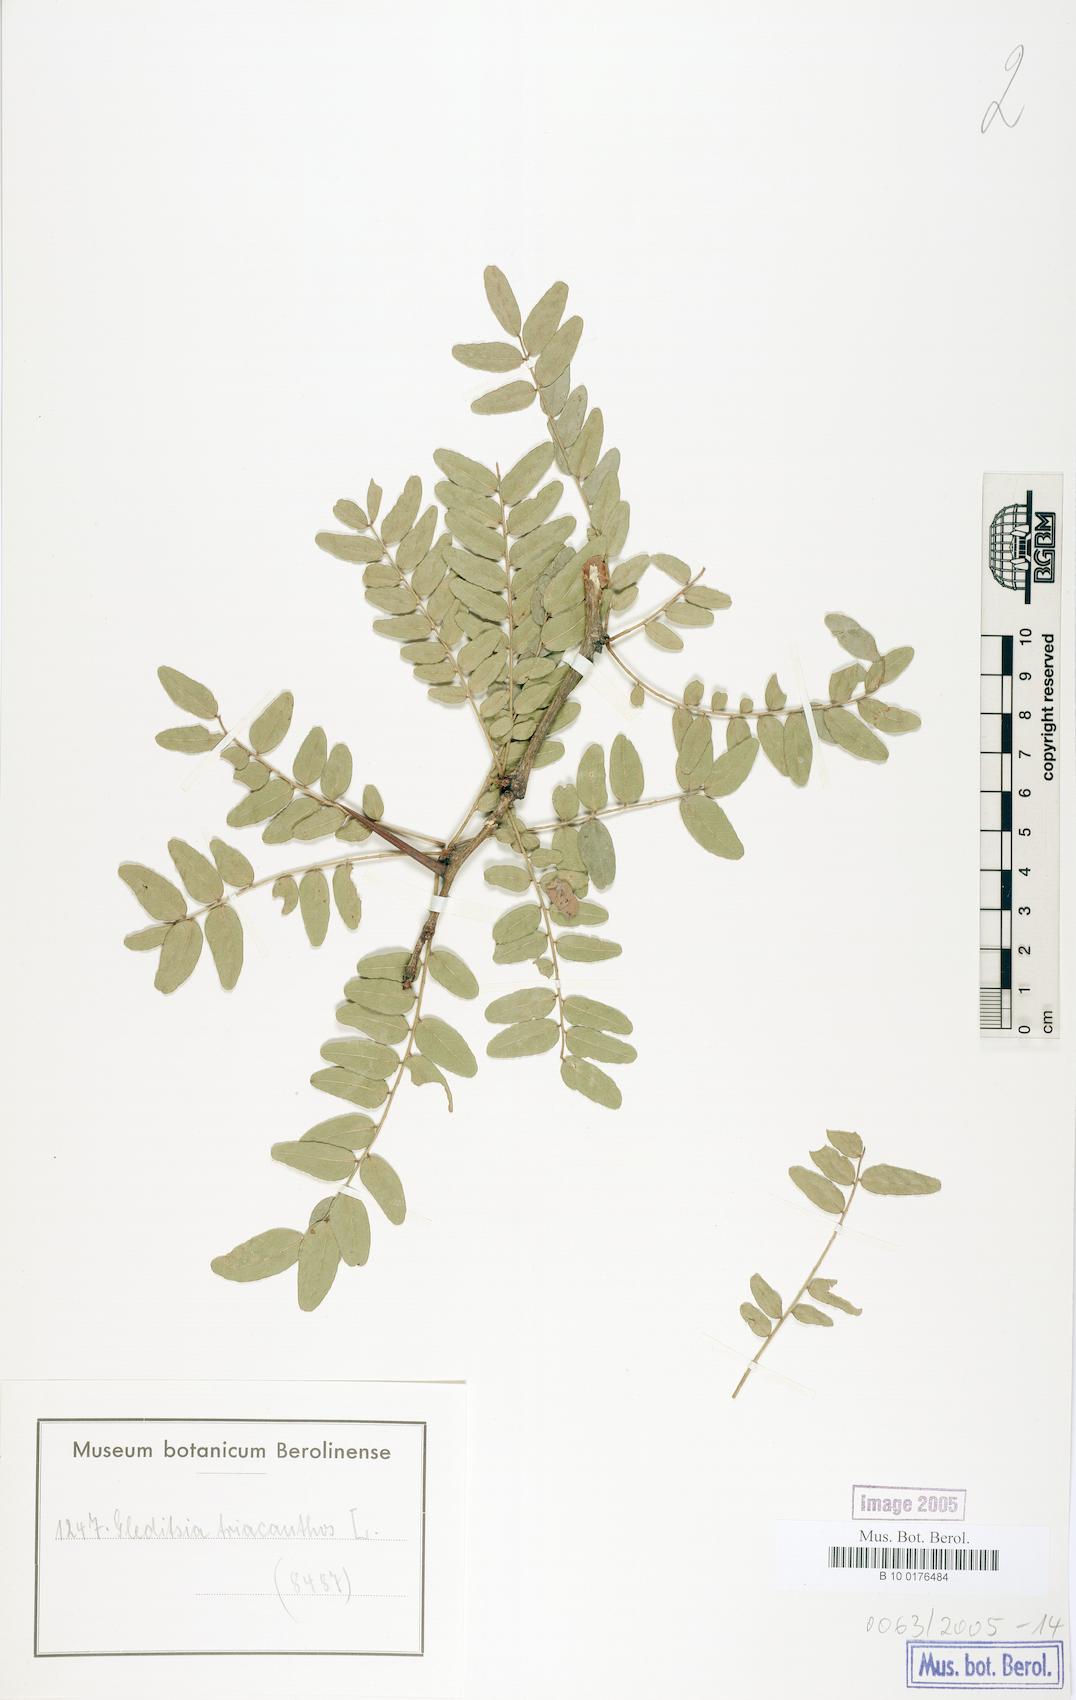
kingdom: Plantae
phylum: Tracheophyta
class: Magnoliopsida
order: Fabales
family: Fabaceae
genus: Gleditsia
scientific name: Gleditsia triacanthos
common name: Common honeylocust
